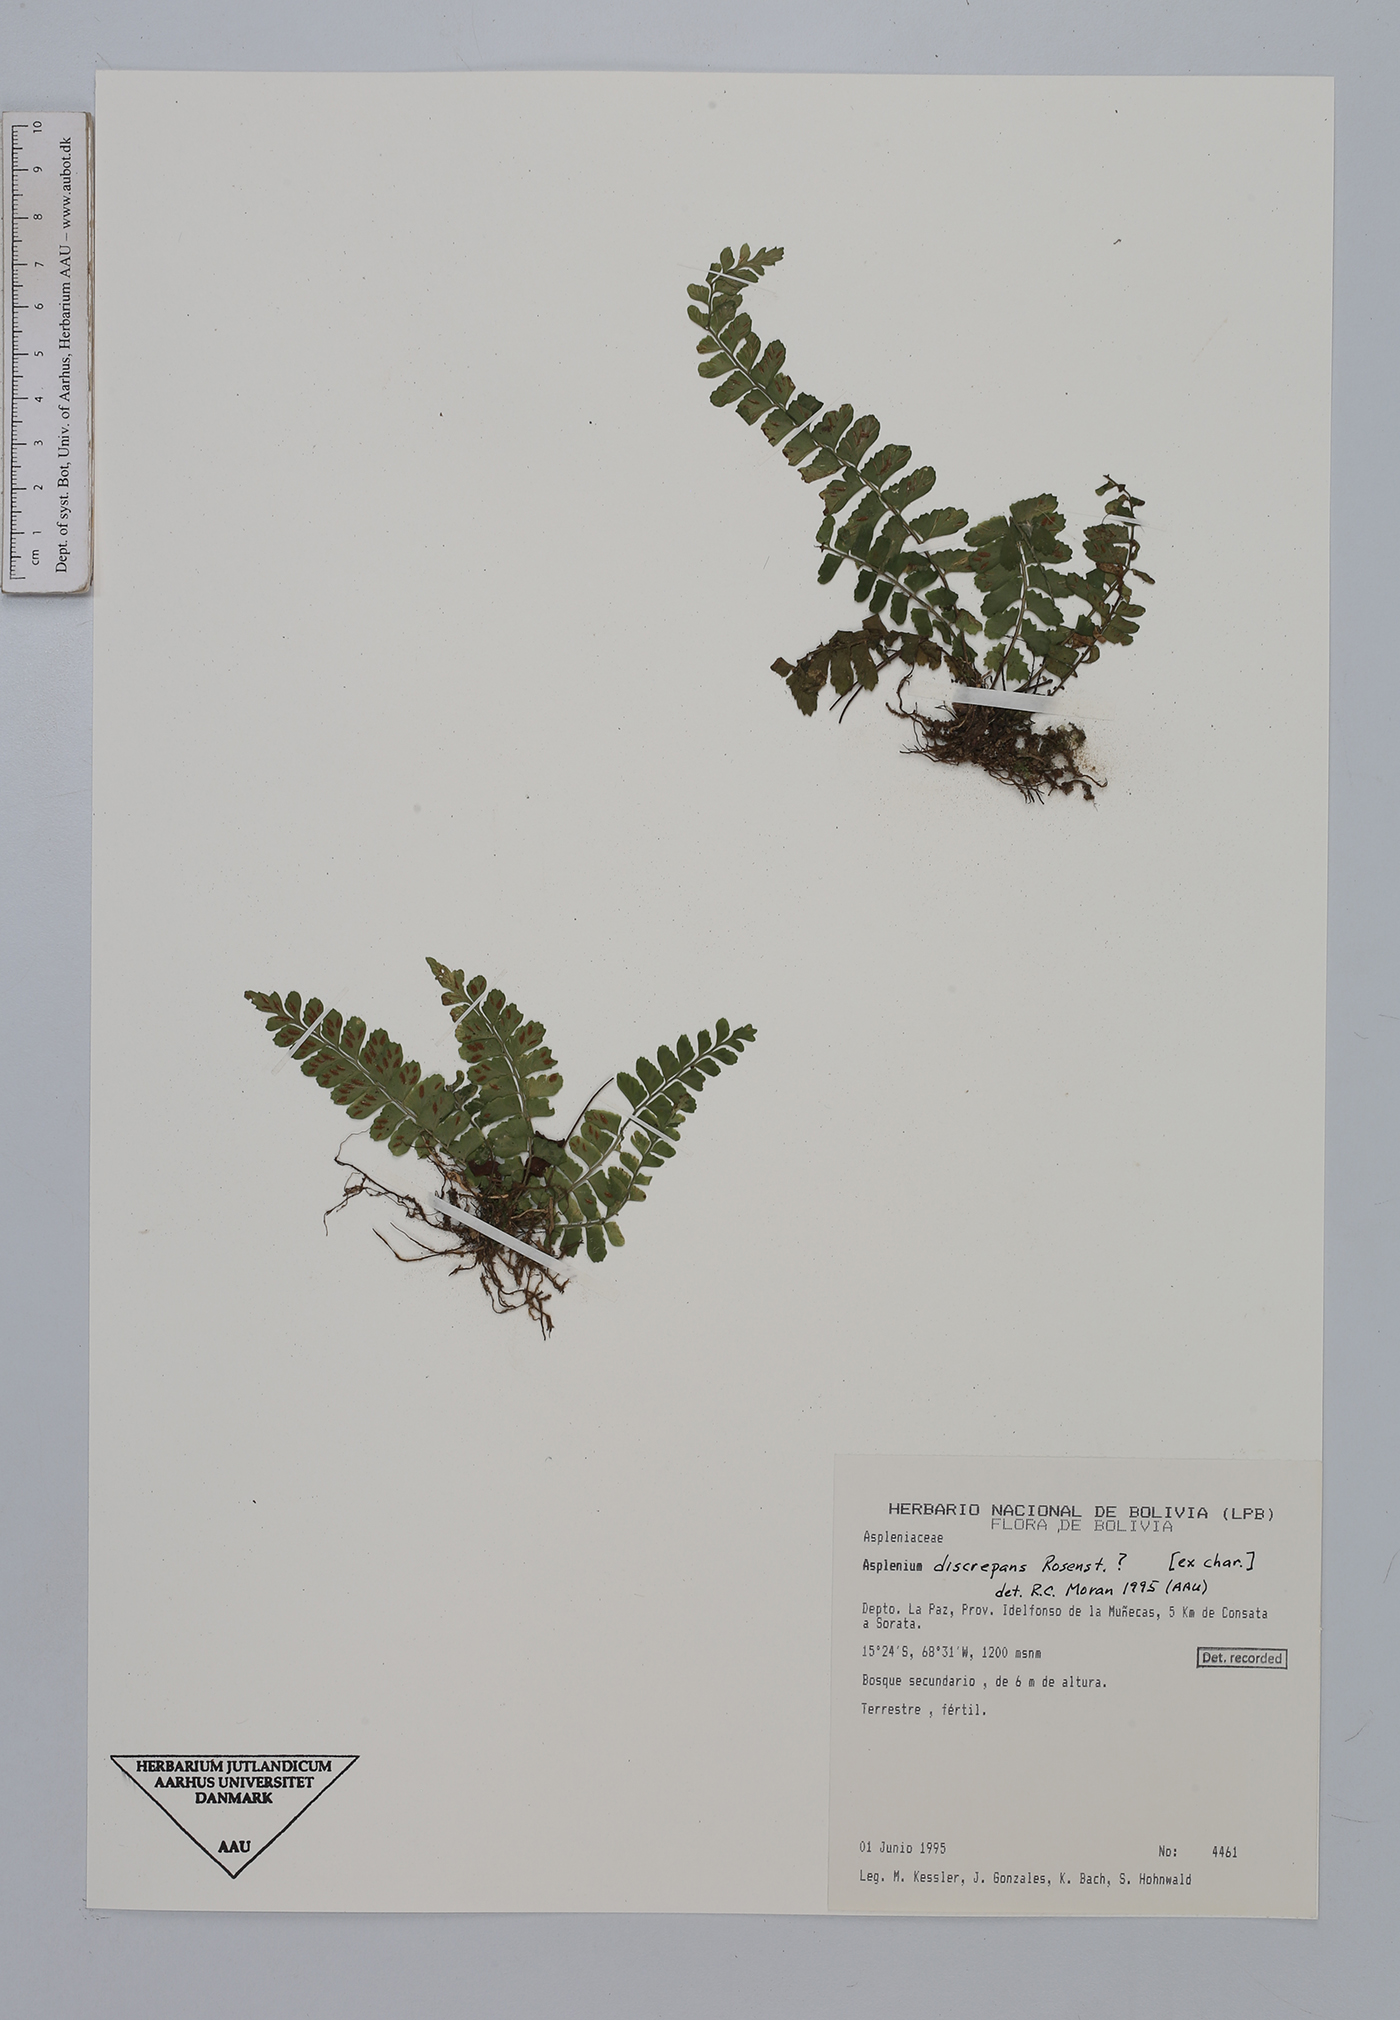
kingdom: Plantae
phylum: Tracheophyta
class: Polypodiopsida
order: Polypodiales
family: Aspleniaceae
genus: Asplenium
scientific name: Asplenium discrepans
